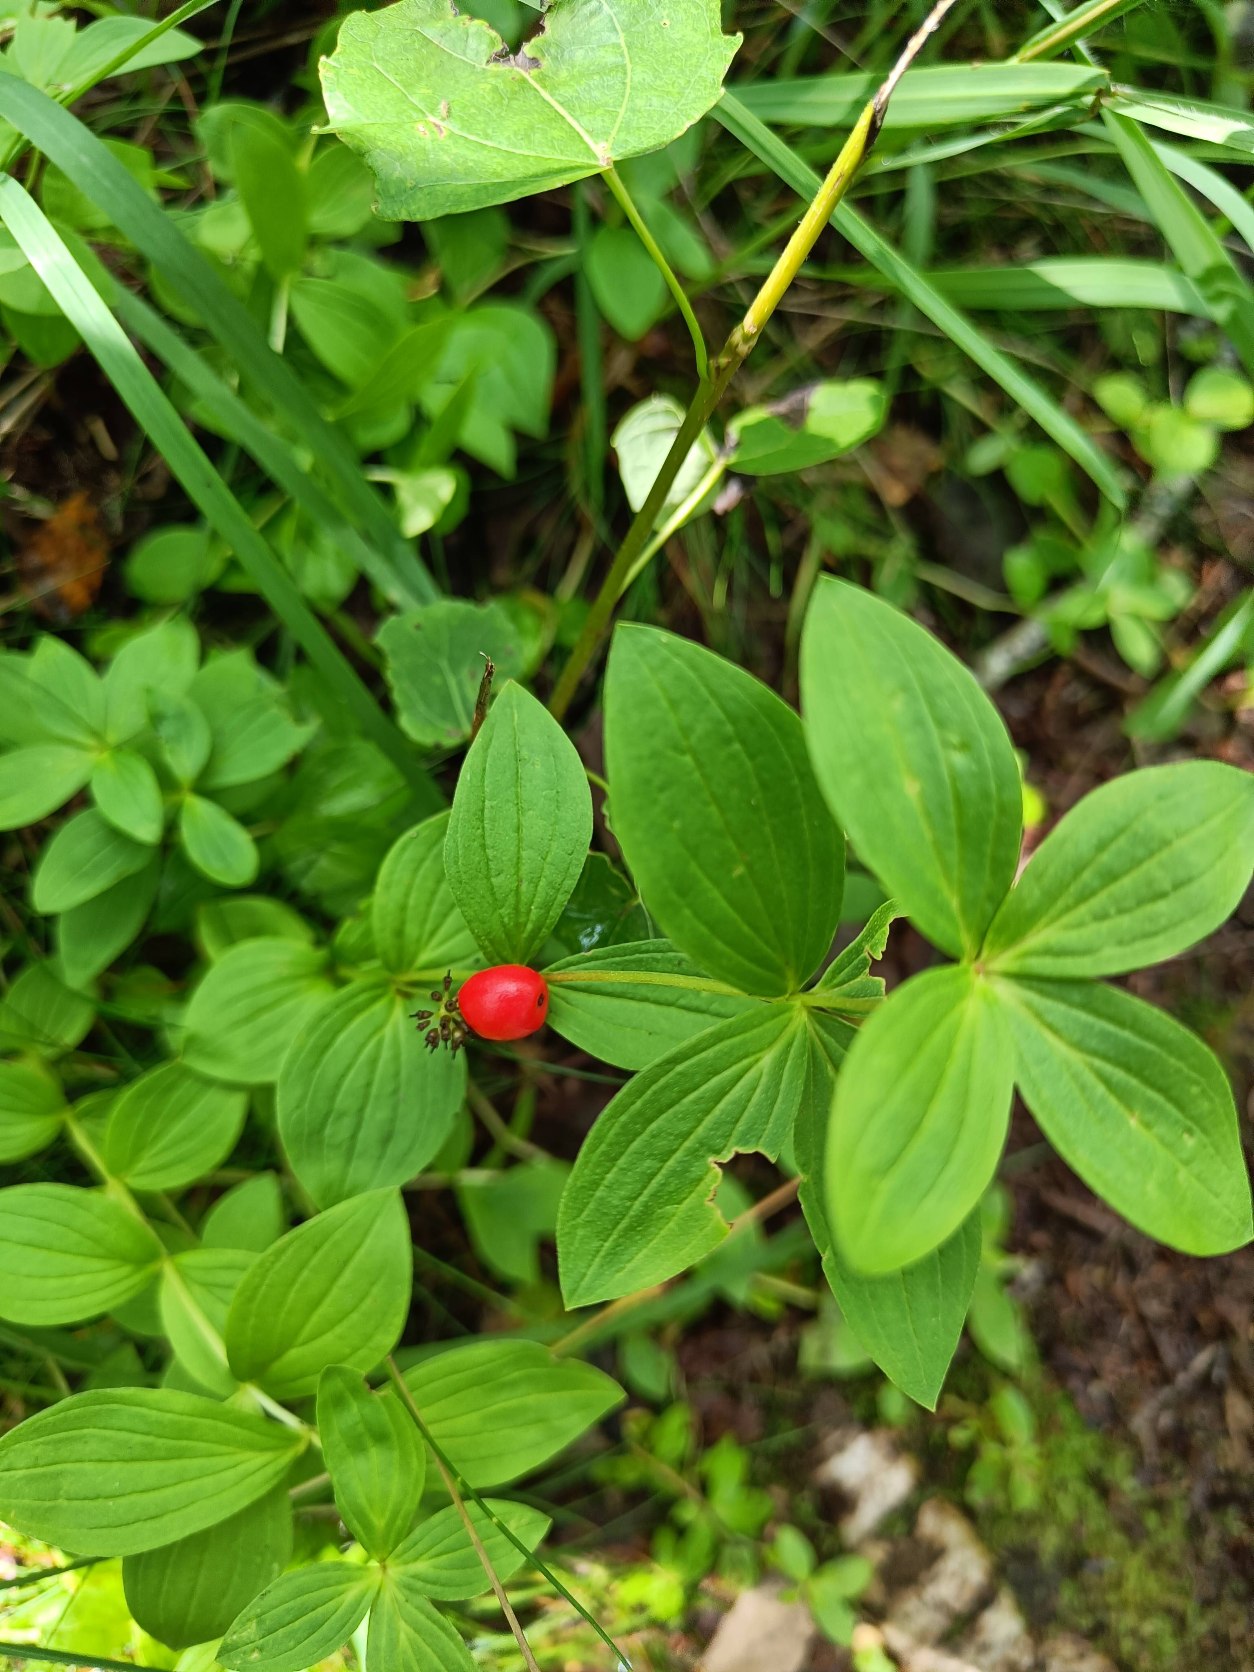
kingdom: Plantae
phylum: Tracheophyta
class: Magnoliopsida
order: Cornales
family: Cornaceae
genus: Cornus
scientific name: Cornus suecica
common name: Hønsebær
